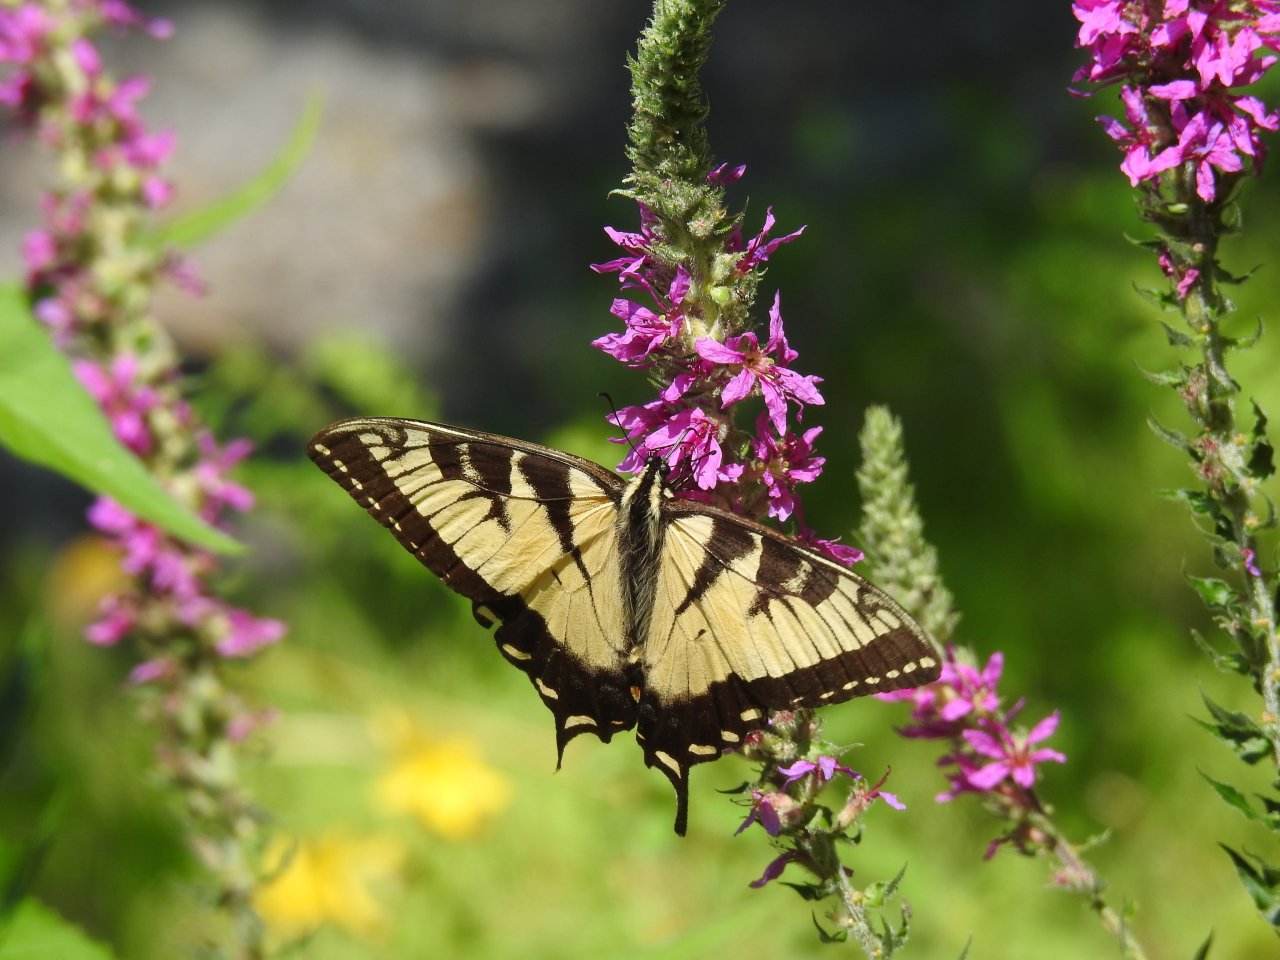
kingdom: Animalia
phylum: Arthropoda
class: Insecta
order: Lepidoptera
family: Papilionidae
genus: Pterourus
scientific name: Pterourus canadensis
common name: Canadian Tiger Swallowtail
